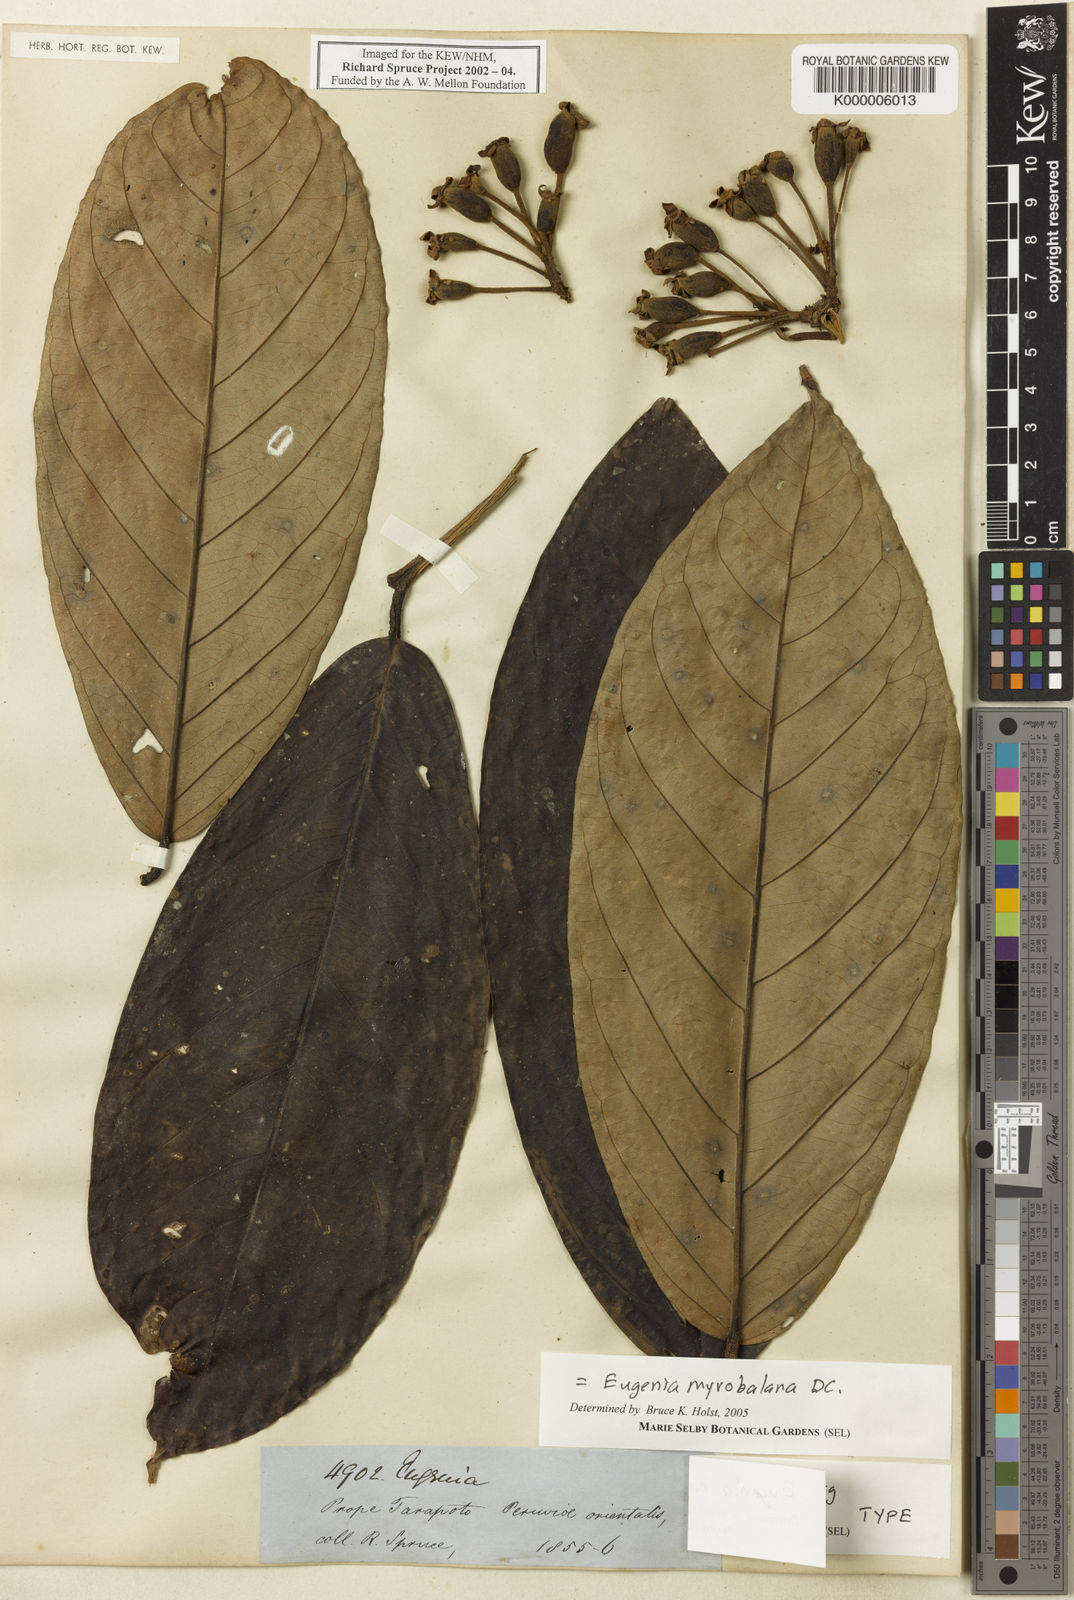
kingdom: Plantae
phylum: Tracheophyta
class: Magnoliopsida
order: Myrtales
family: Myrtaceae
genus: Eugenia
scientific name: Eugenia myrobalana
